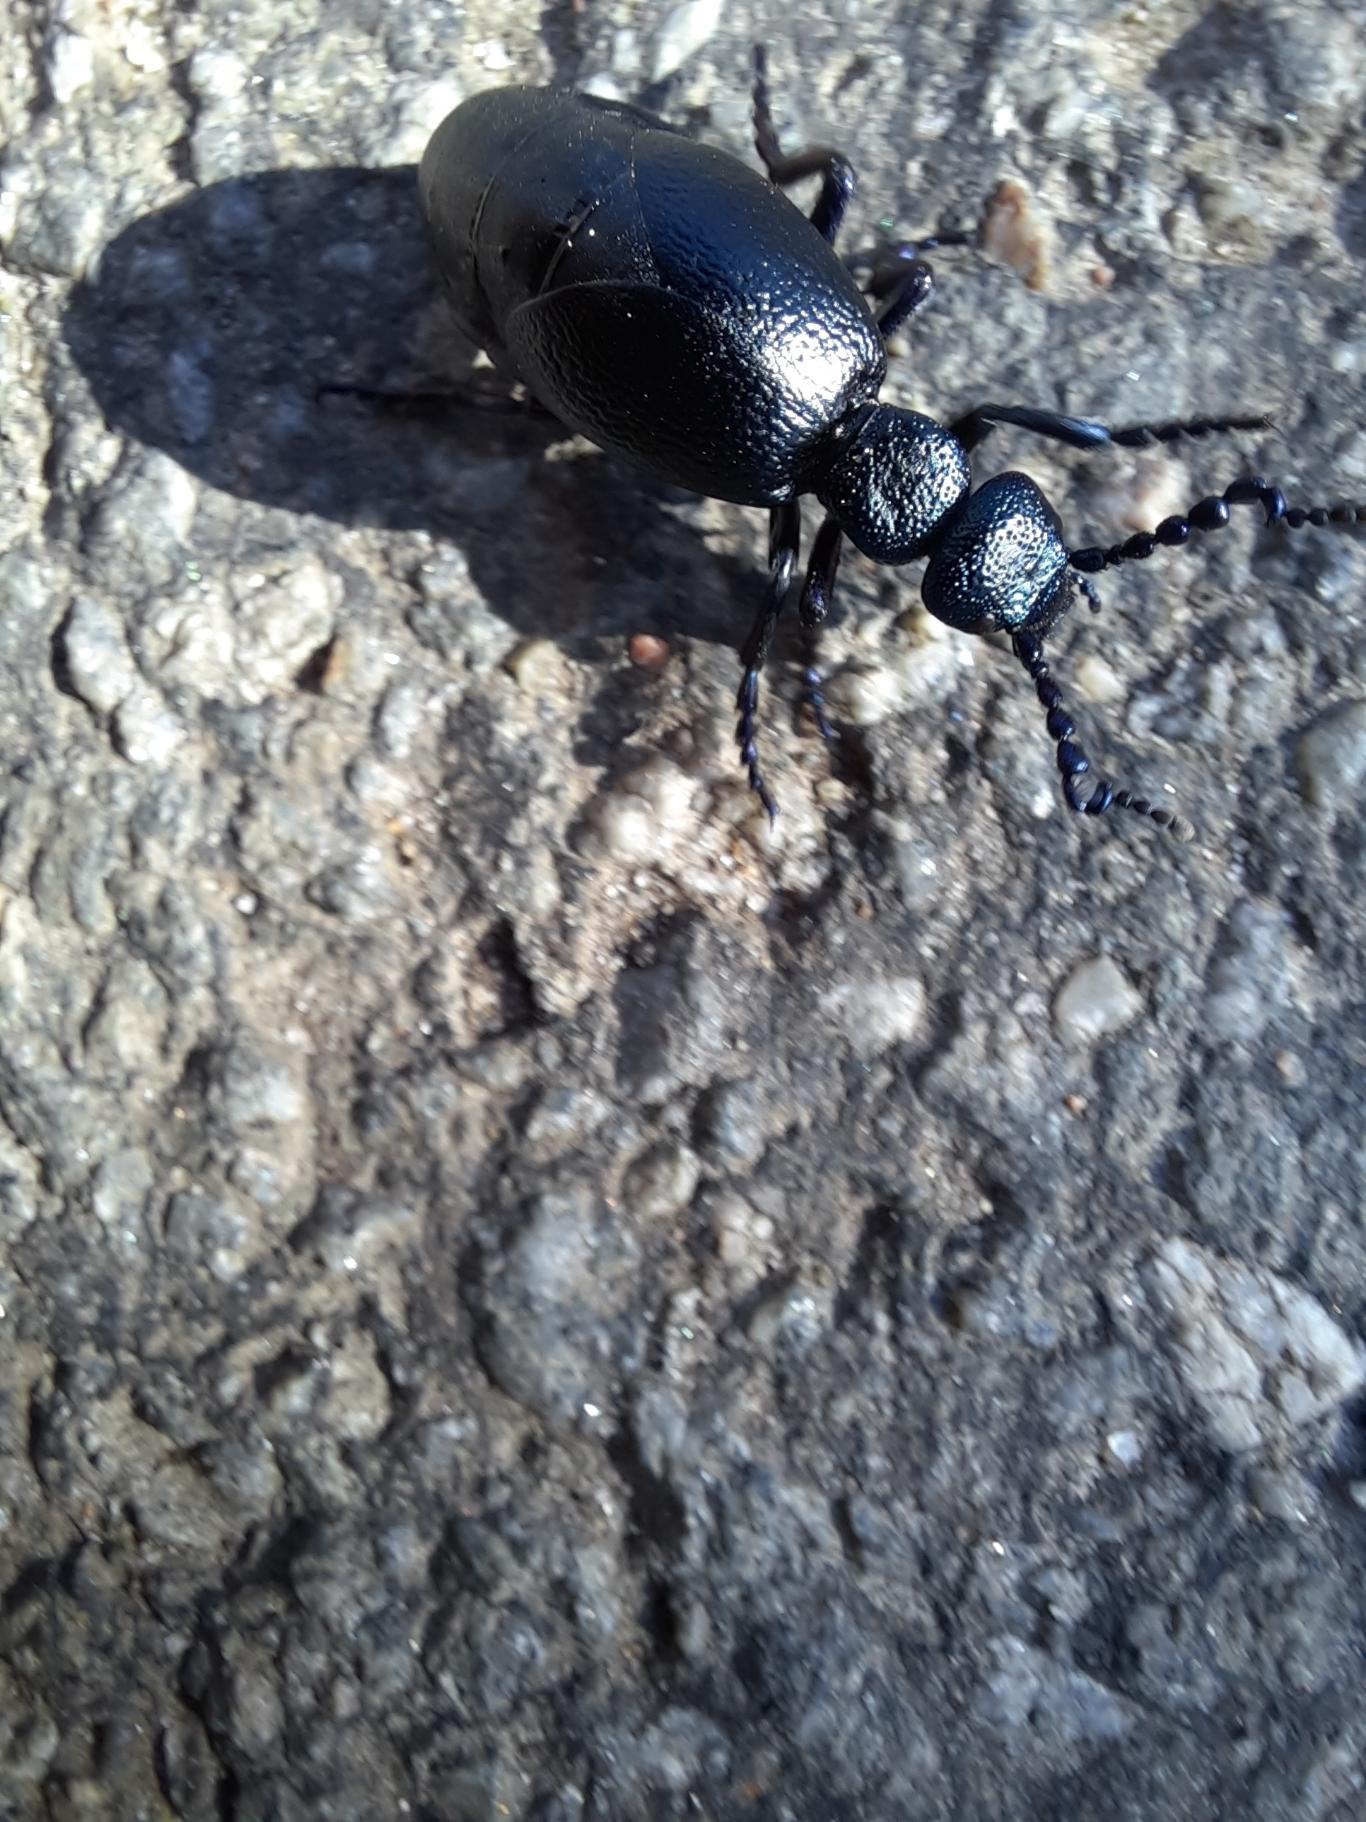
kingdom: Animalia
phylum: Arthropoda
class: Insecta
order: Coleoptera
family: Meloidae
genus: Meloe
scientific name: Meloe proscarabaeus
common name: Sort oliebille
